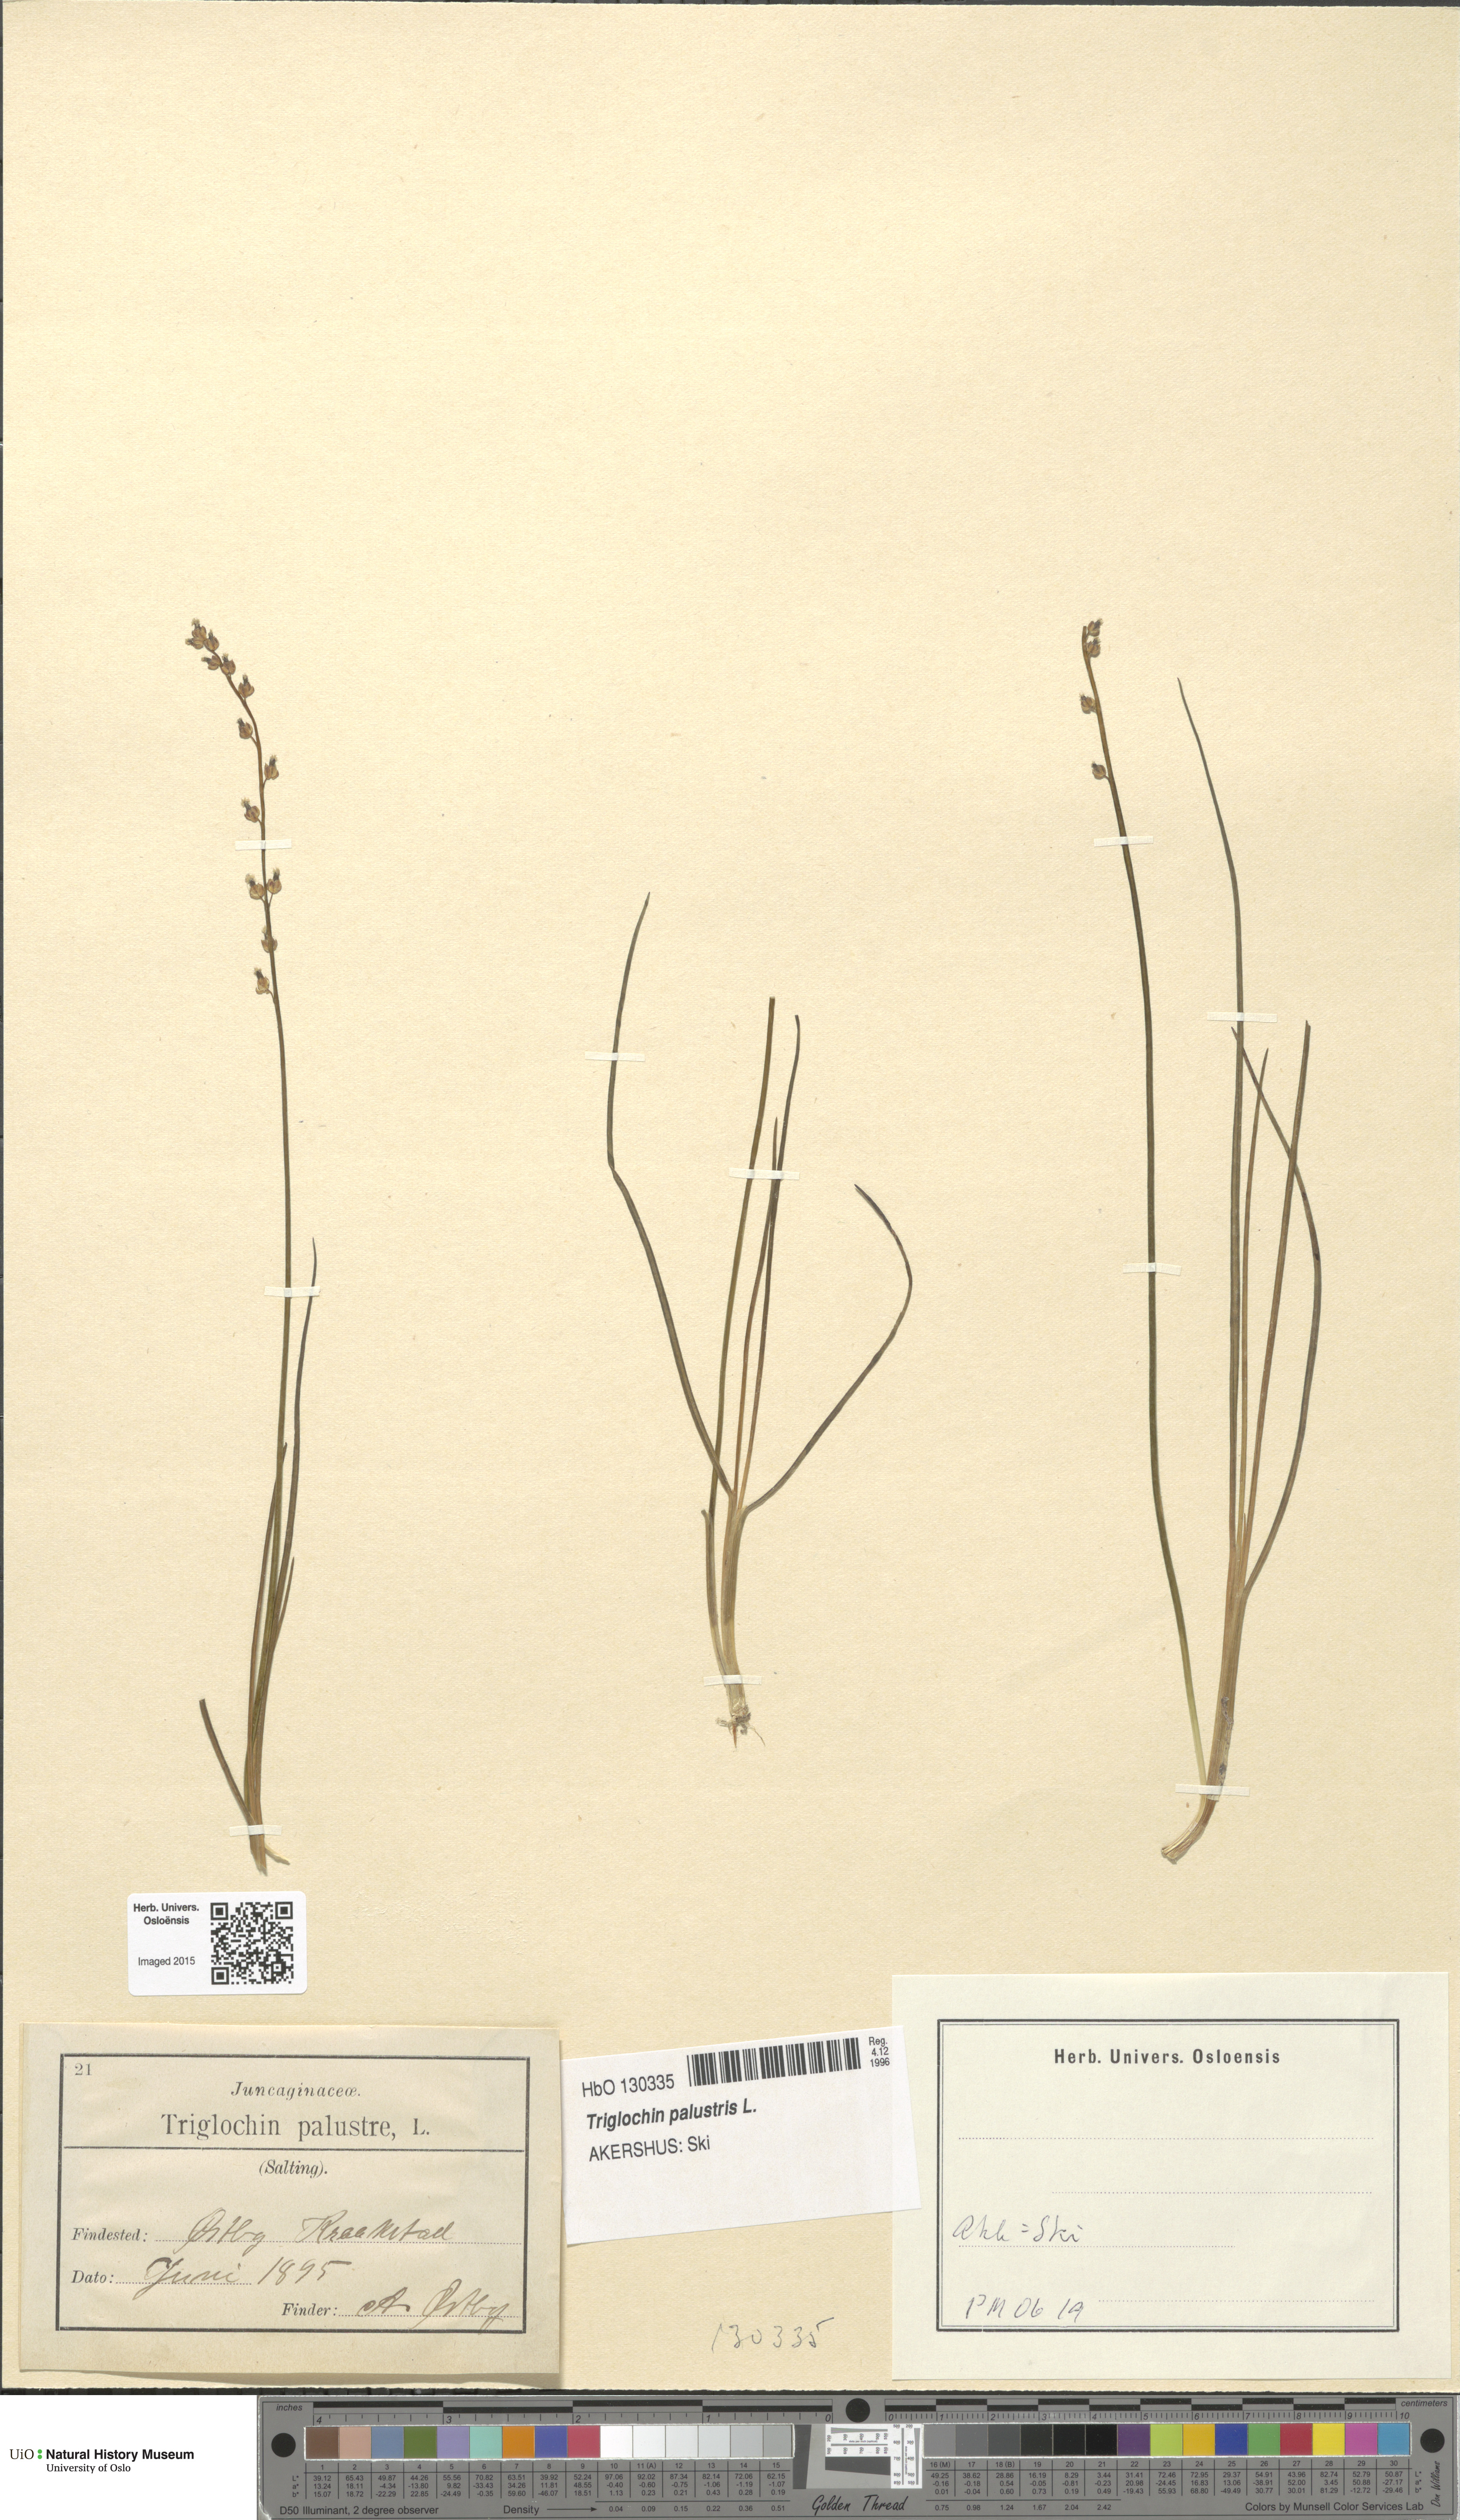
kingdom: Plantae
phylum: Tracheophyta
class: Liliopsida
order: Alismatales
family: Juncaginaceae
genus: Triglochin
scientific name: Triglochin palustris
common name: Marsh arrowgrass
